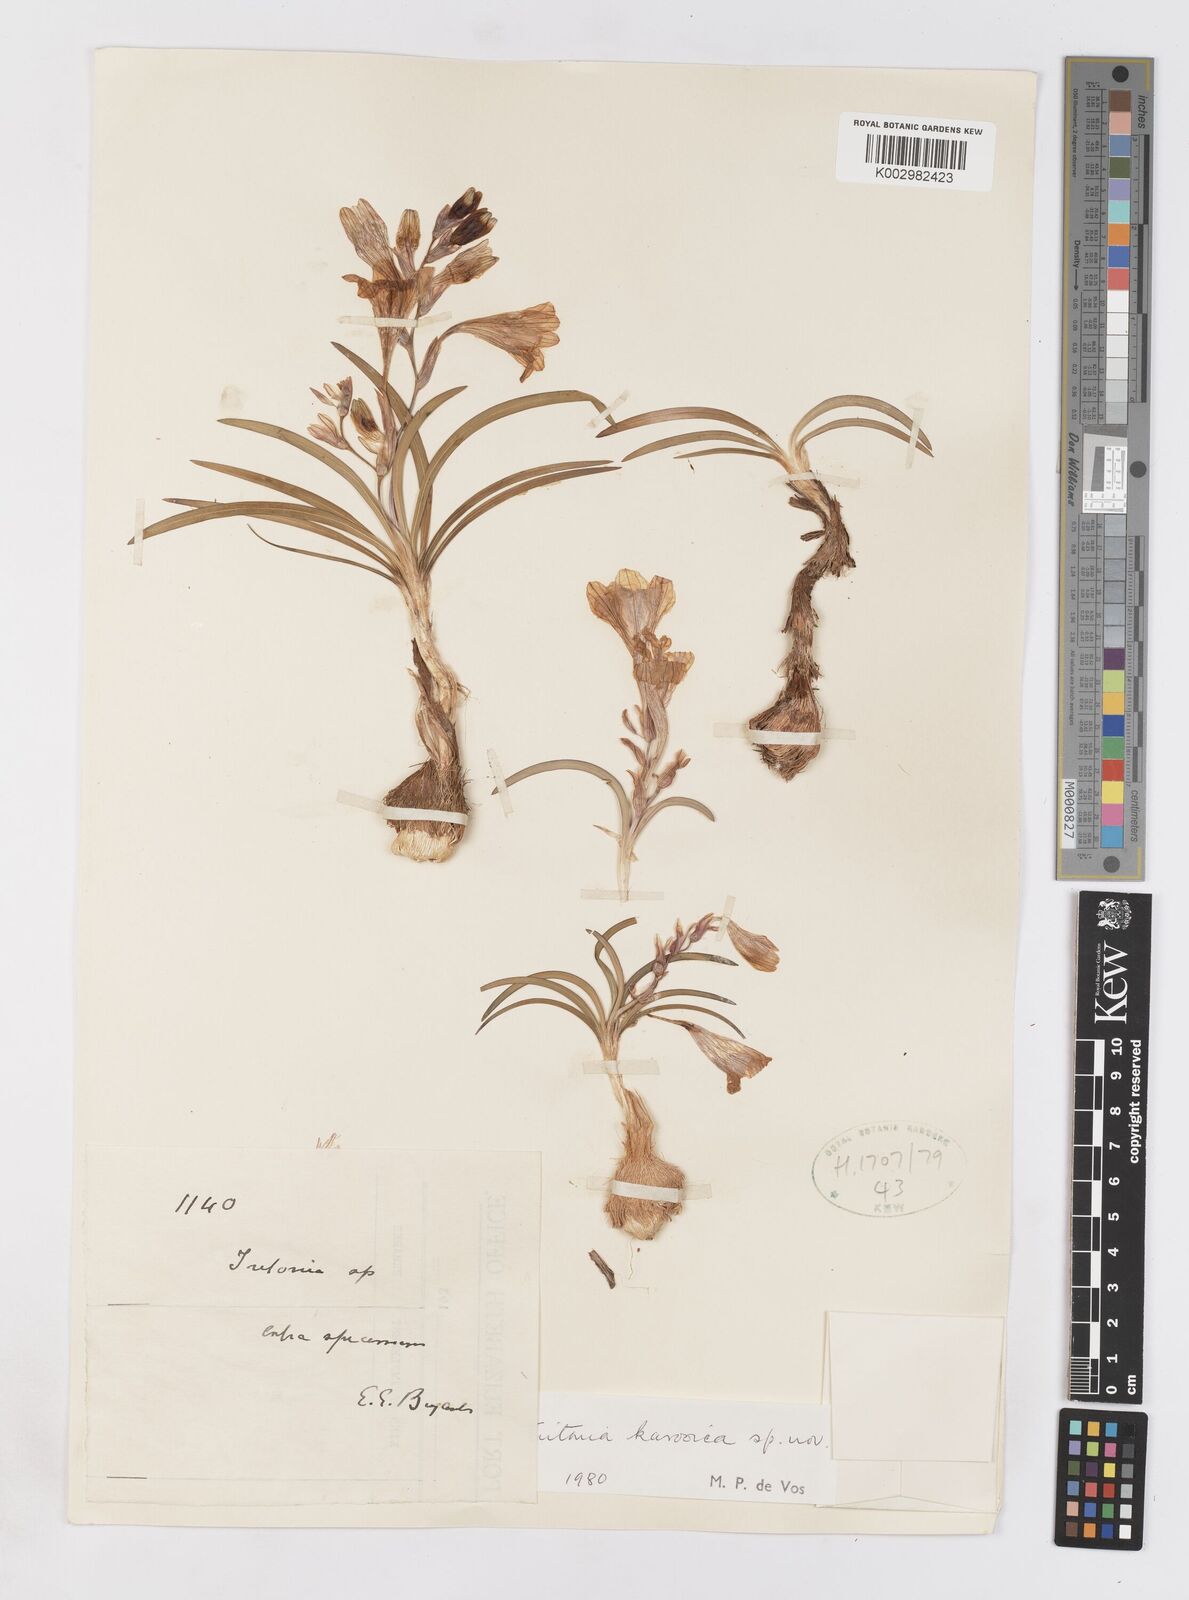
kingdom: Plantae
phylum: Tracheophyta
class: Liliopsida
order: Asparagales
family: Iridaceae
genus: Tritonia
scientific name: Tritonia karooica
